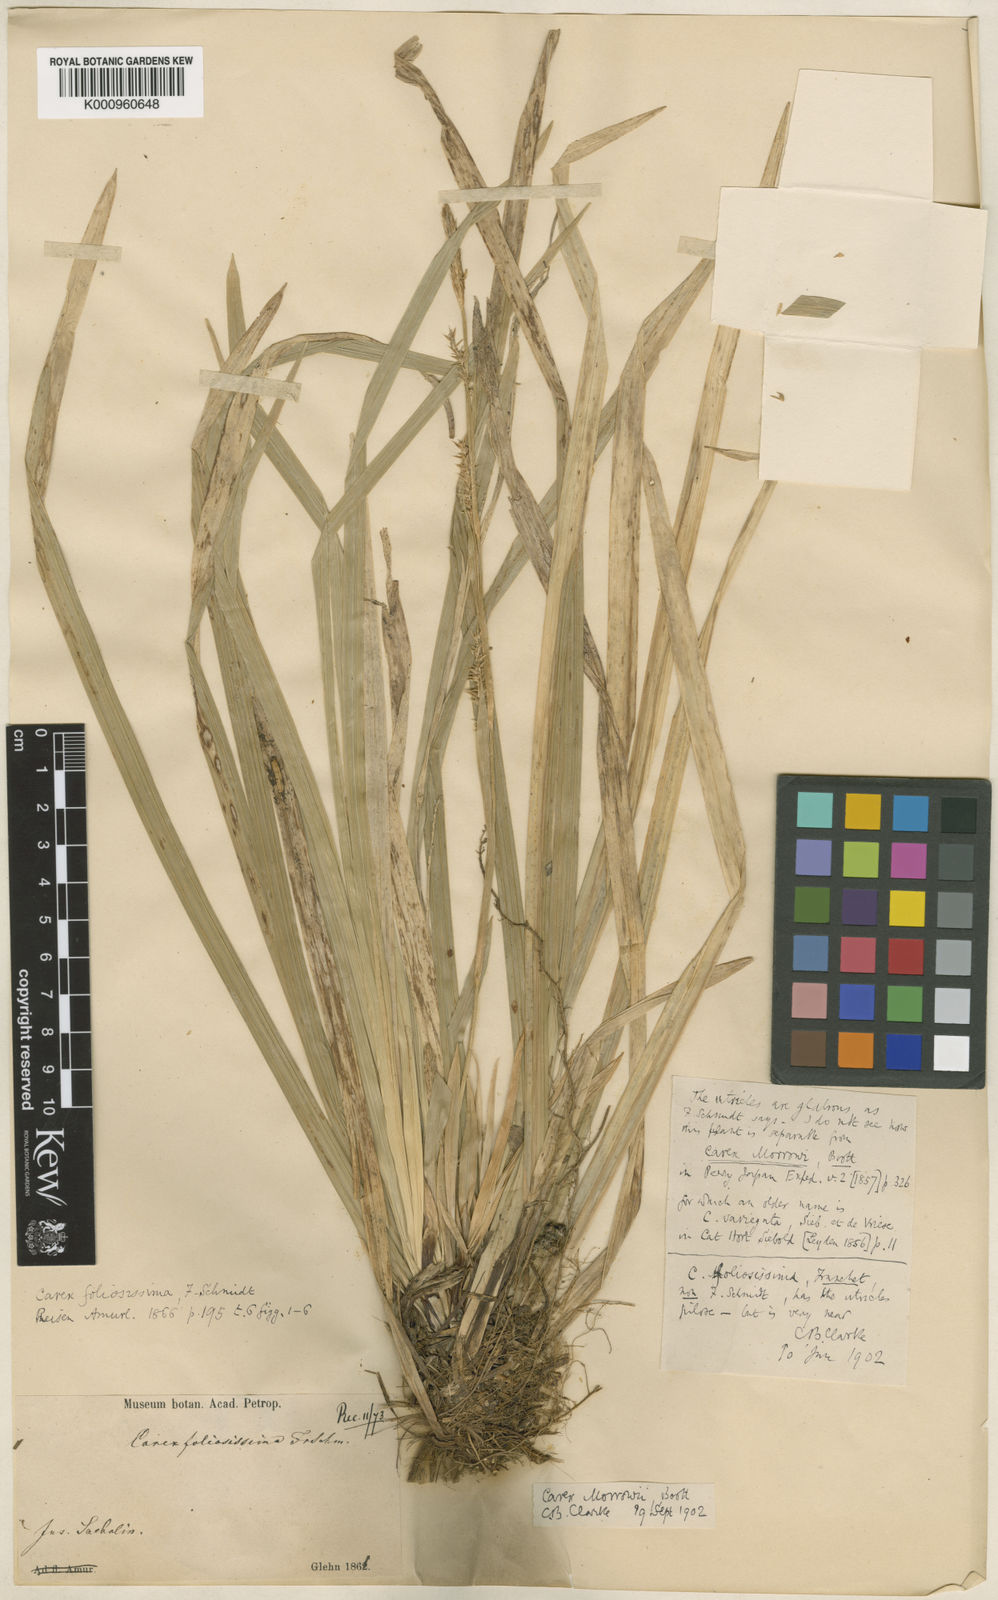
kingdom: Plantae
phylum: Tracheophyta
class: Liliopsida
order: Poales
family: Cyperaceae
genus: Carex
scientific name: Carex morrowii
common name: Japanese sedge
